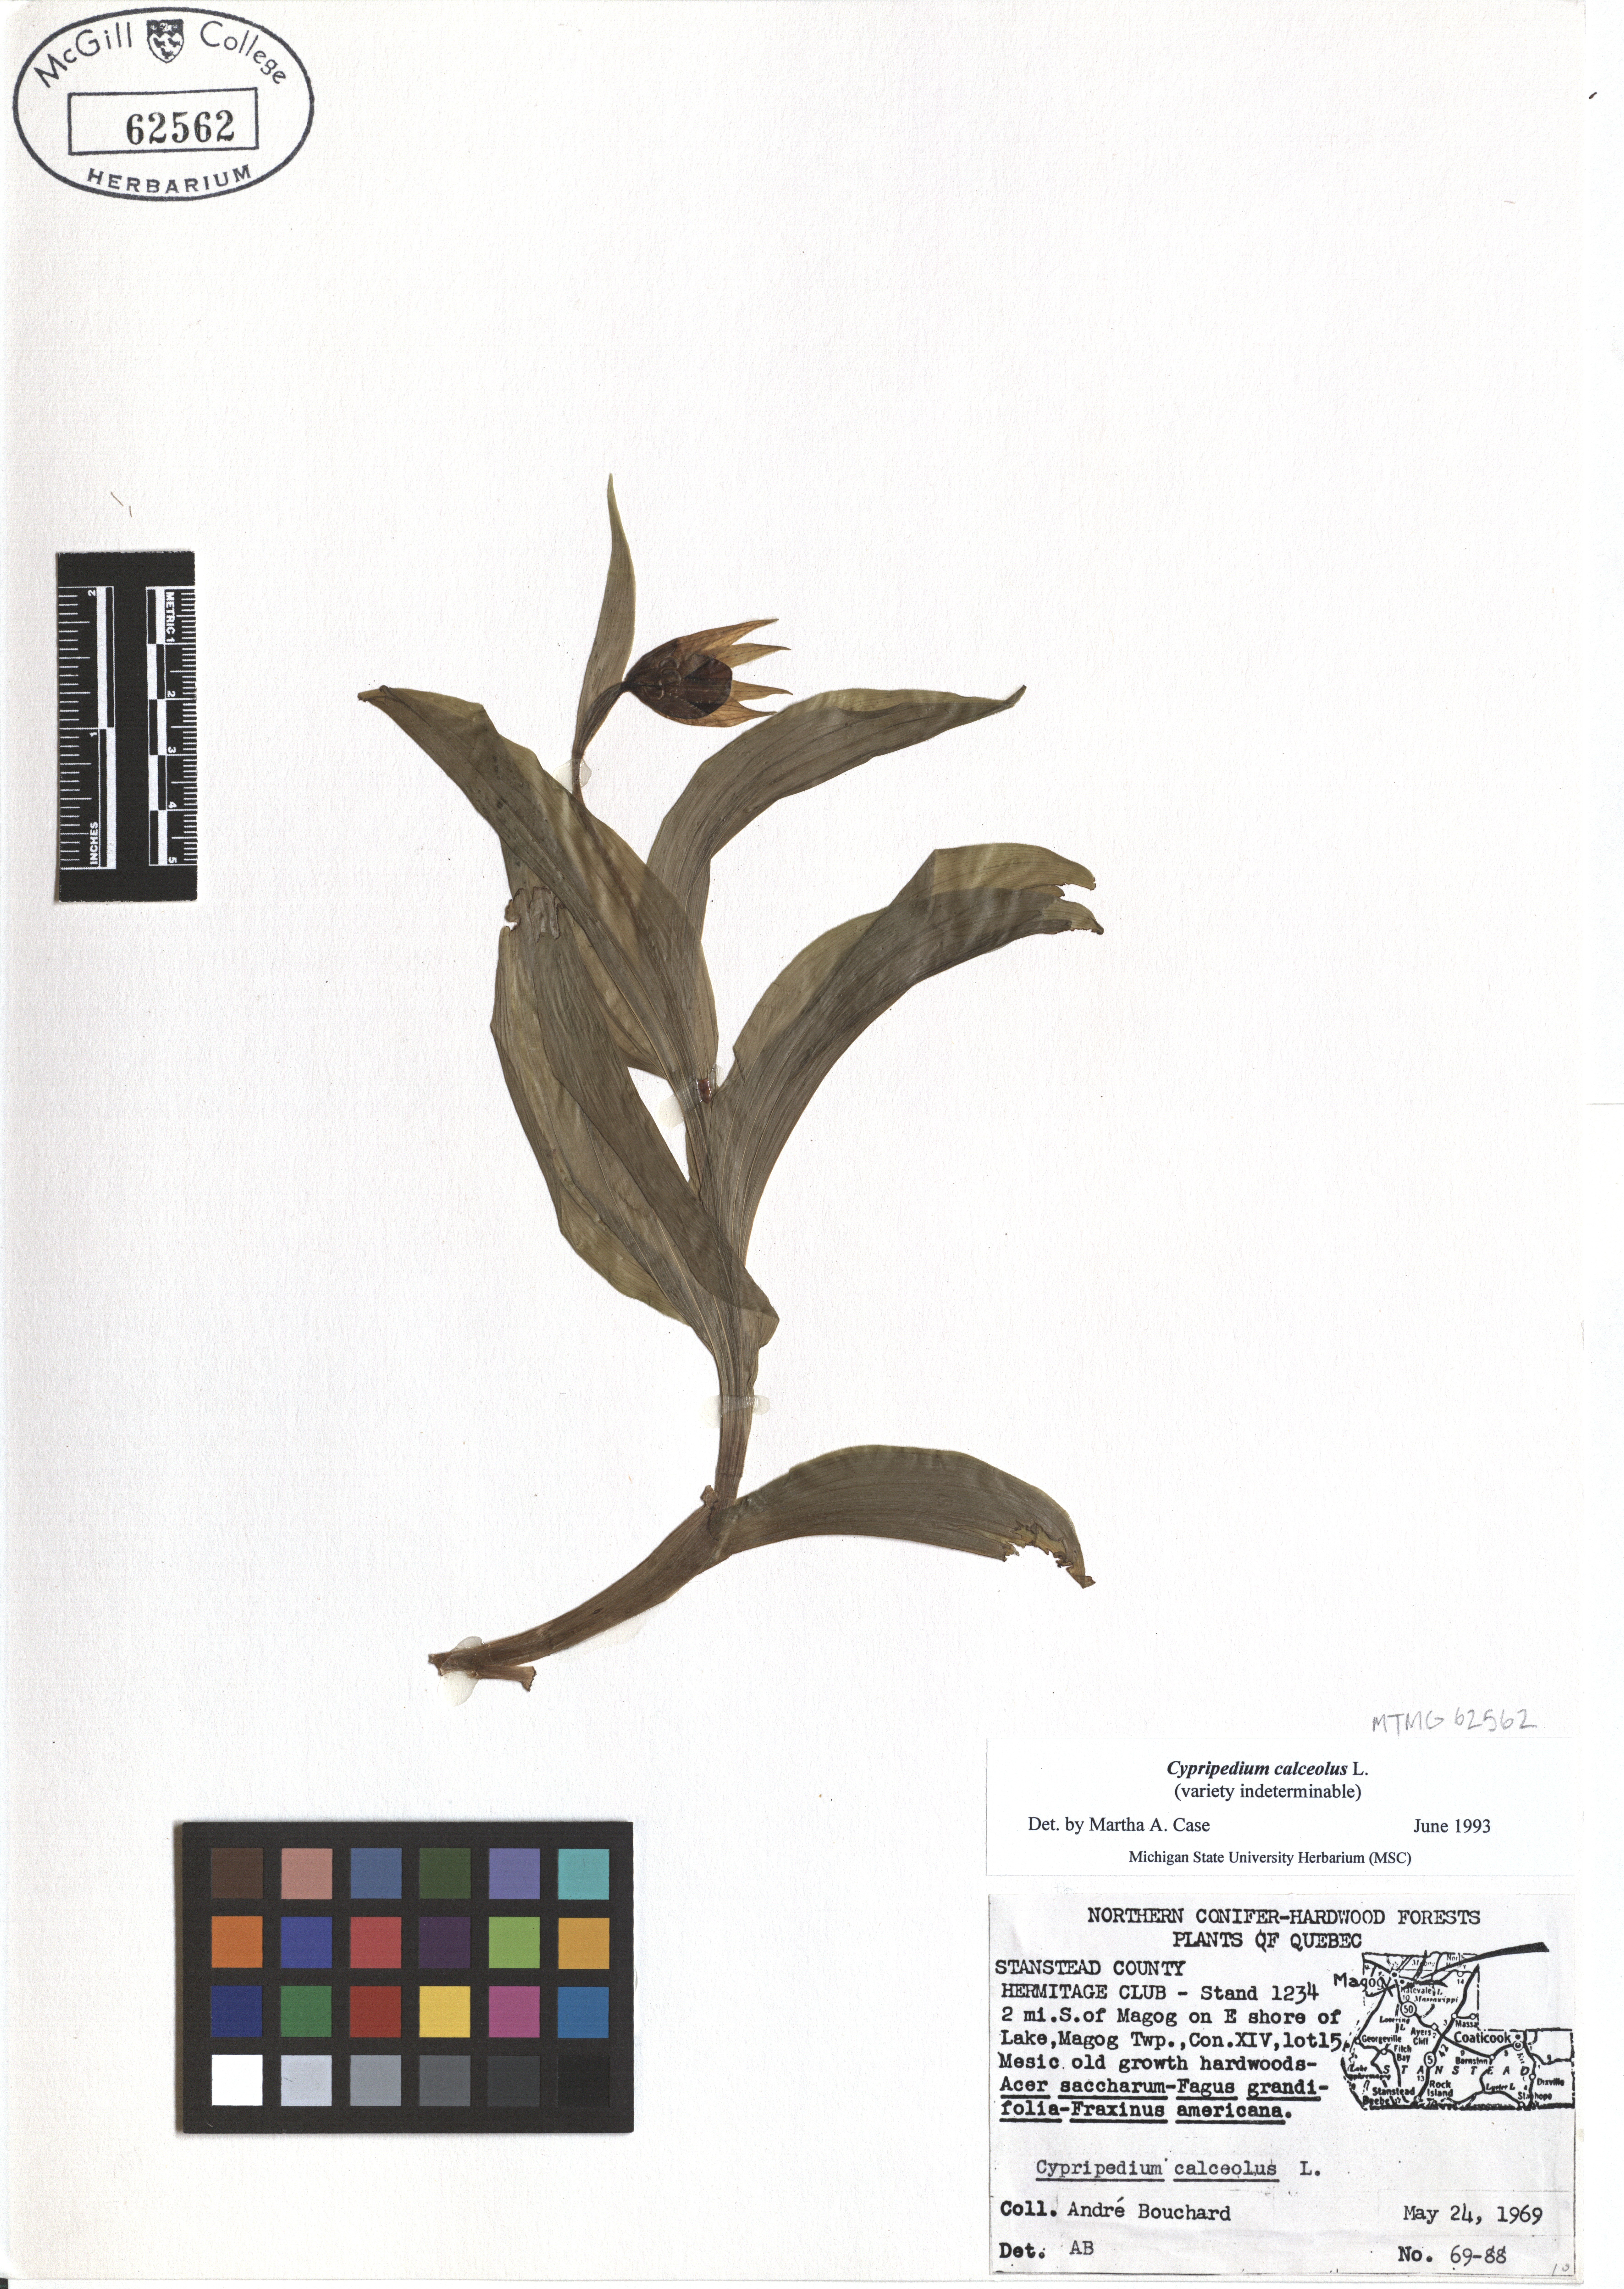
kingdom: Plantae
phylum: Tracheophyta
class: Liliopsida
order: Asparagales
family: Orchidaceae
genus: Cypripedium
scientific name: Cypripedium calceolus
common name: Lady's-slipper
